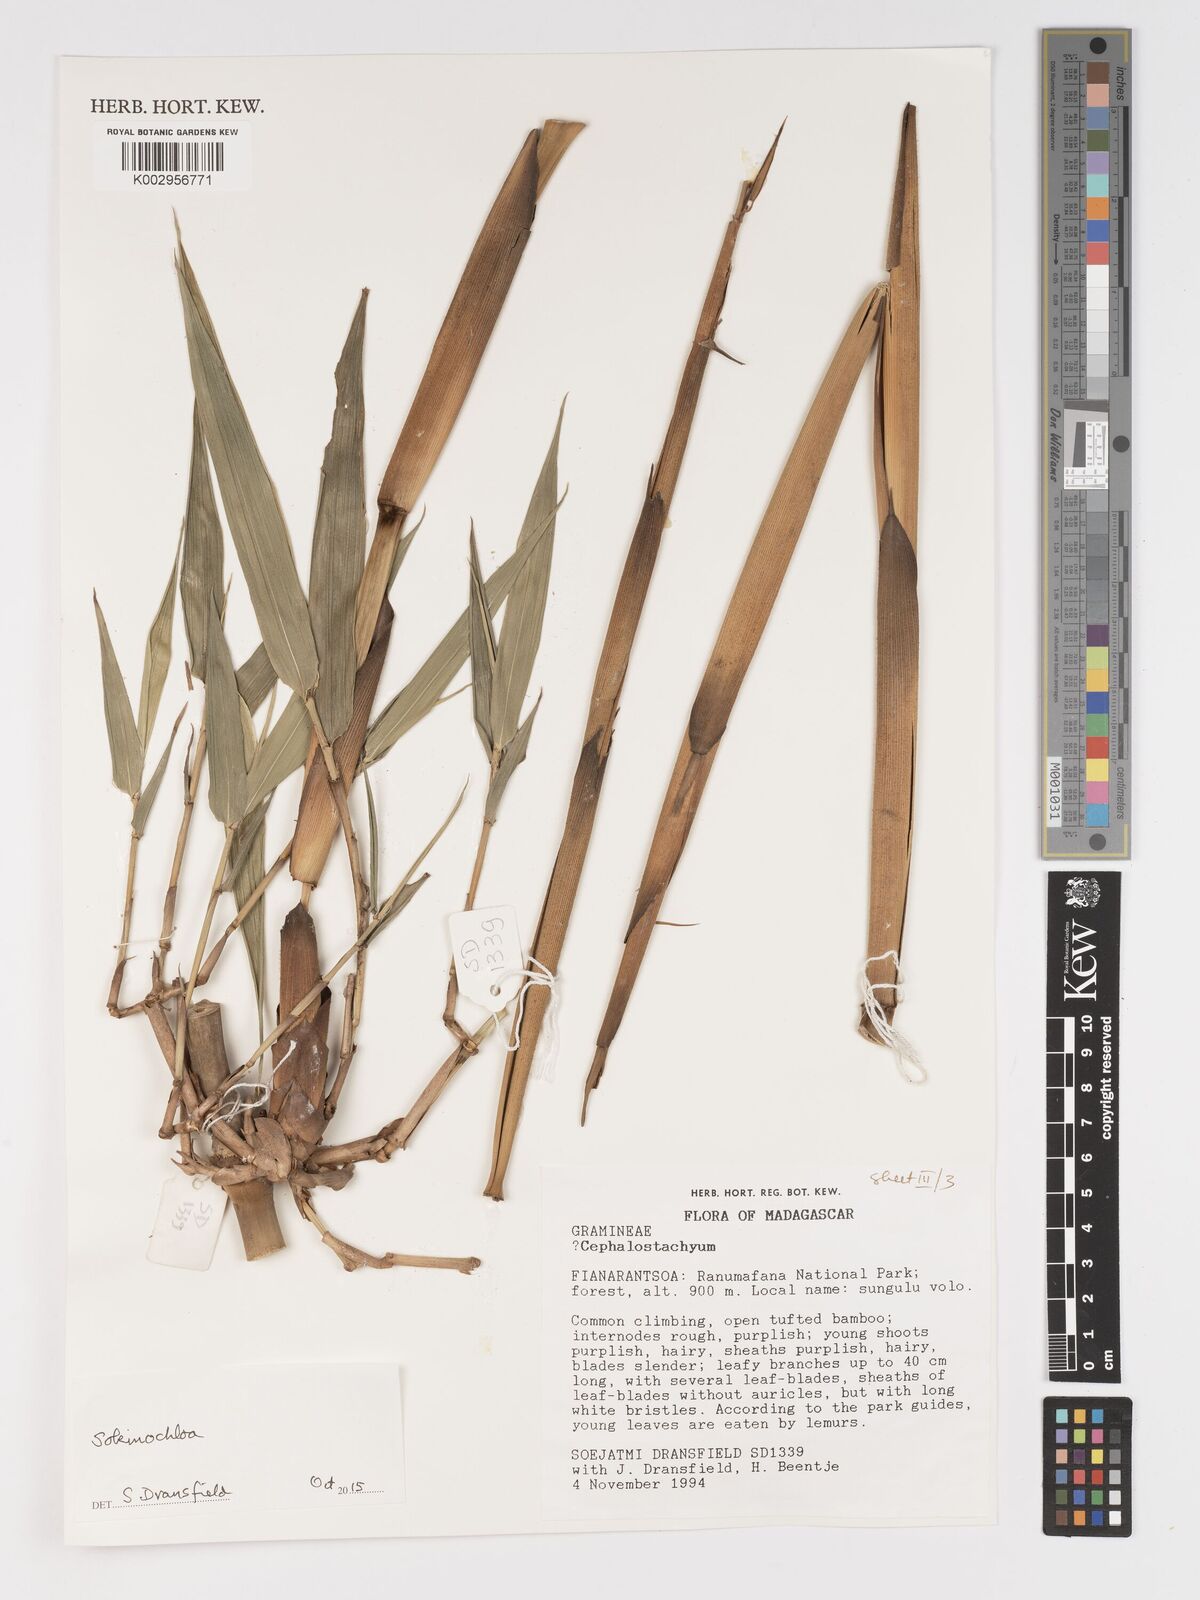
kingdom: Plantae
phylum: Tracheophyta
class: Liliopsida
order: Poales
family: Poaceae
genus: Sokinochloa
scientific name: Sokinochloa
